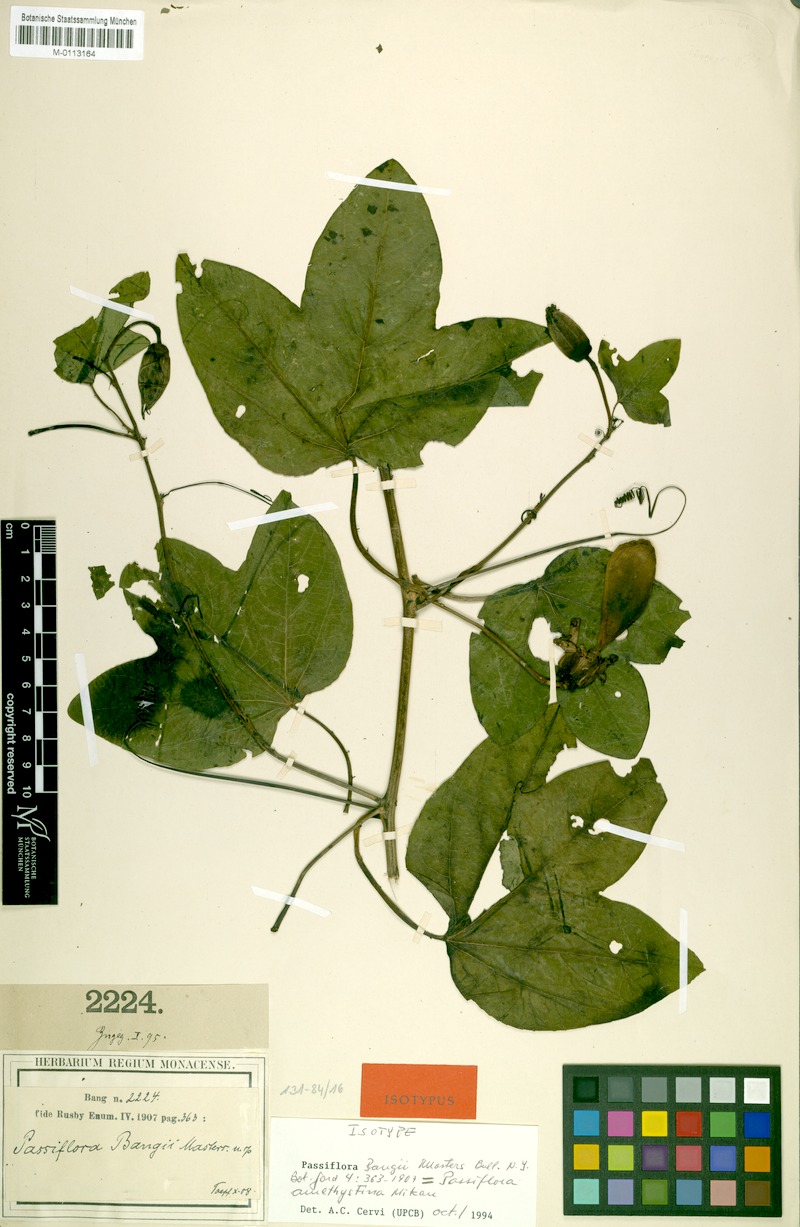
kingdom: Plantae
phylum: Tracheophyta
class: Magnoliopsida
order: Malpighiales
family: Passifloraceae
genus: Passiflora
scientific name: Passiflora amethystina
